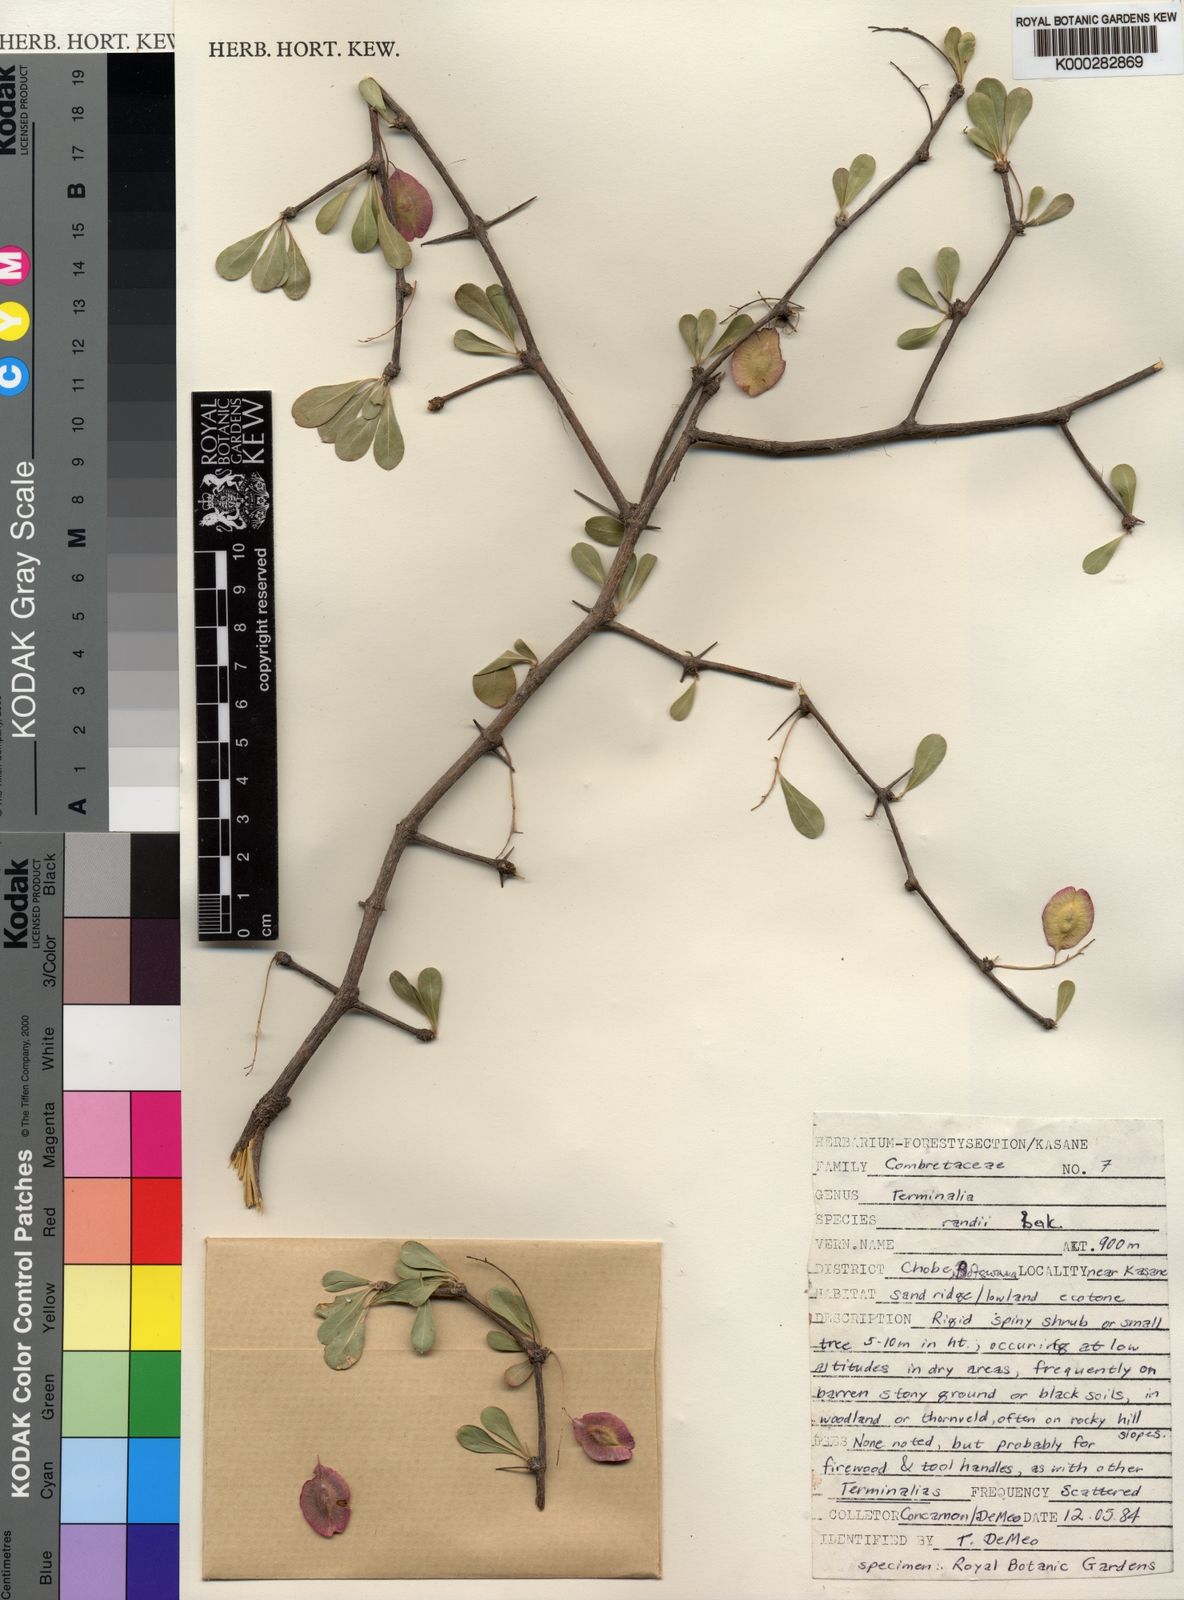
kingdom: Plantae
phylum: Tracheophyta
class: Magnoliopsida
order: Myrtales
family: Combretaceae
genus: Terminalia
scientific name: Terminalia randii
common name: Small-leaved terminalia
